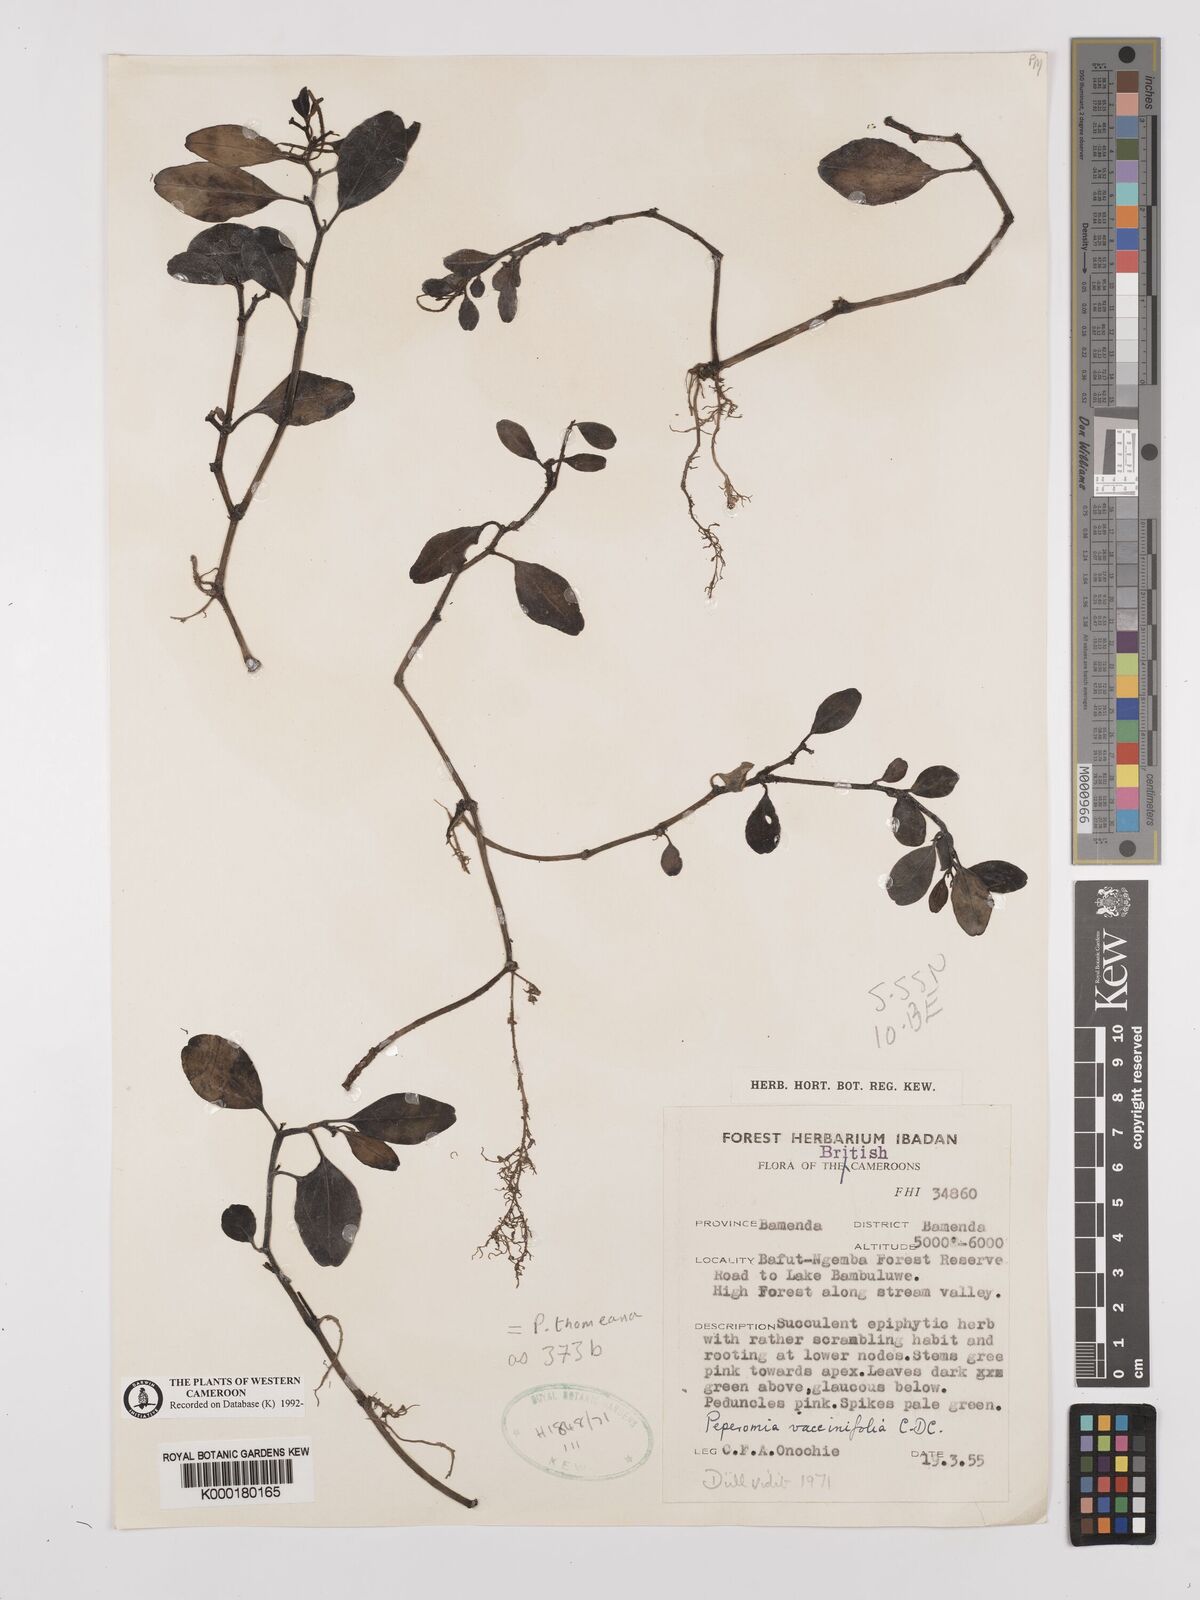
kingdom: Plantae
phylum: Tracheophyta
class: Magnoliopsida
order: Piperales
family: Piperaceae
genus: Peperomia
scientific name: Peperomia thomeana
